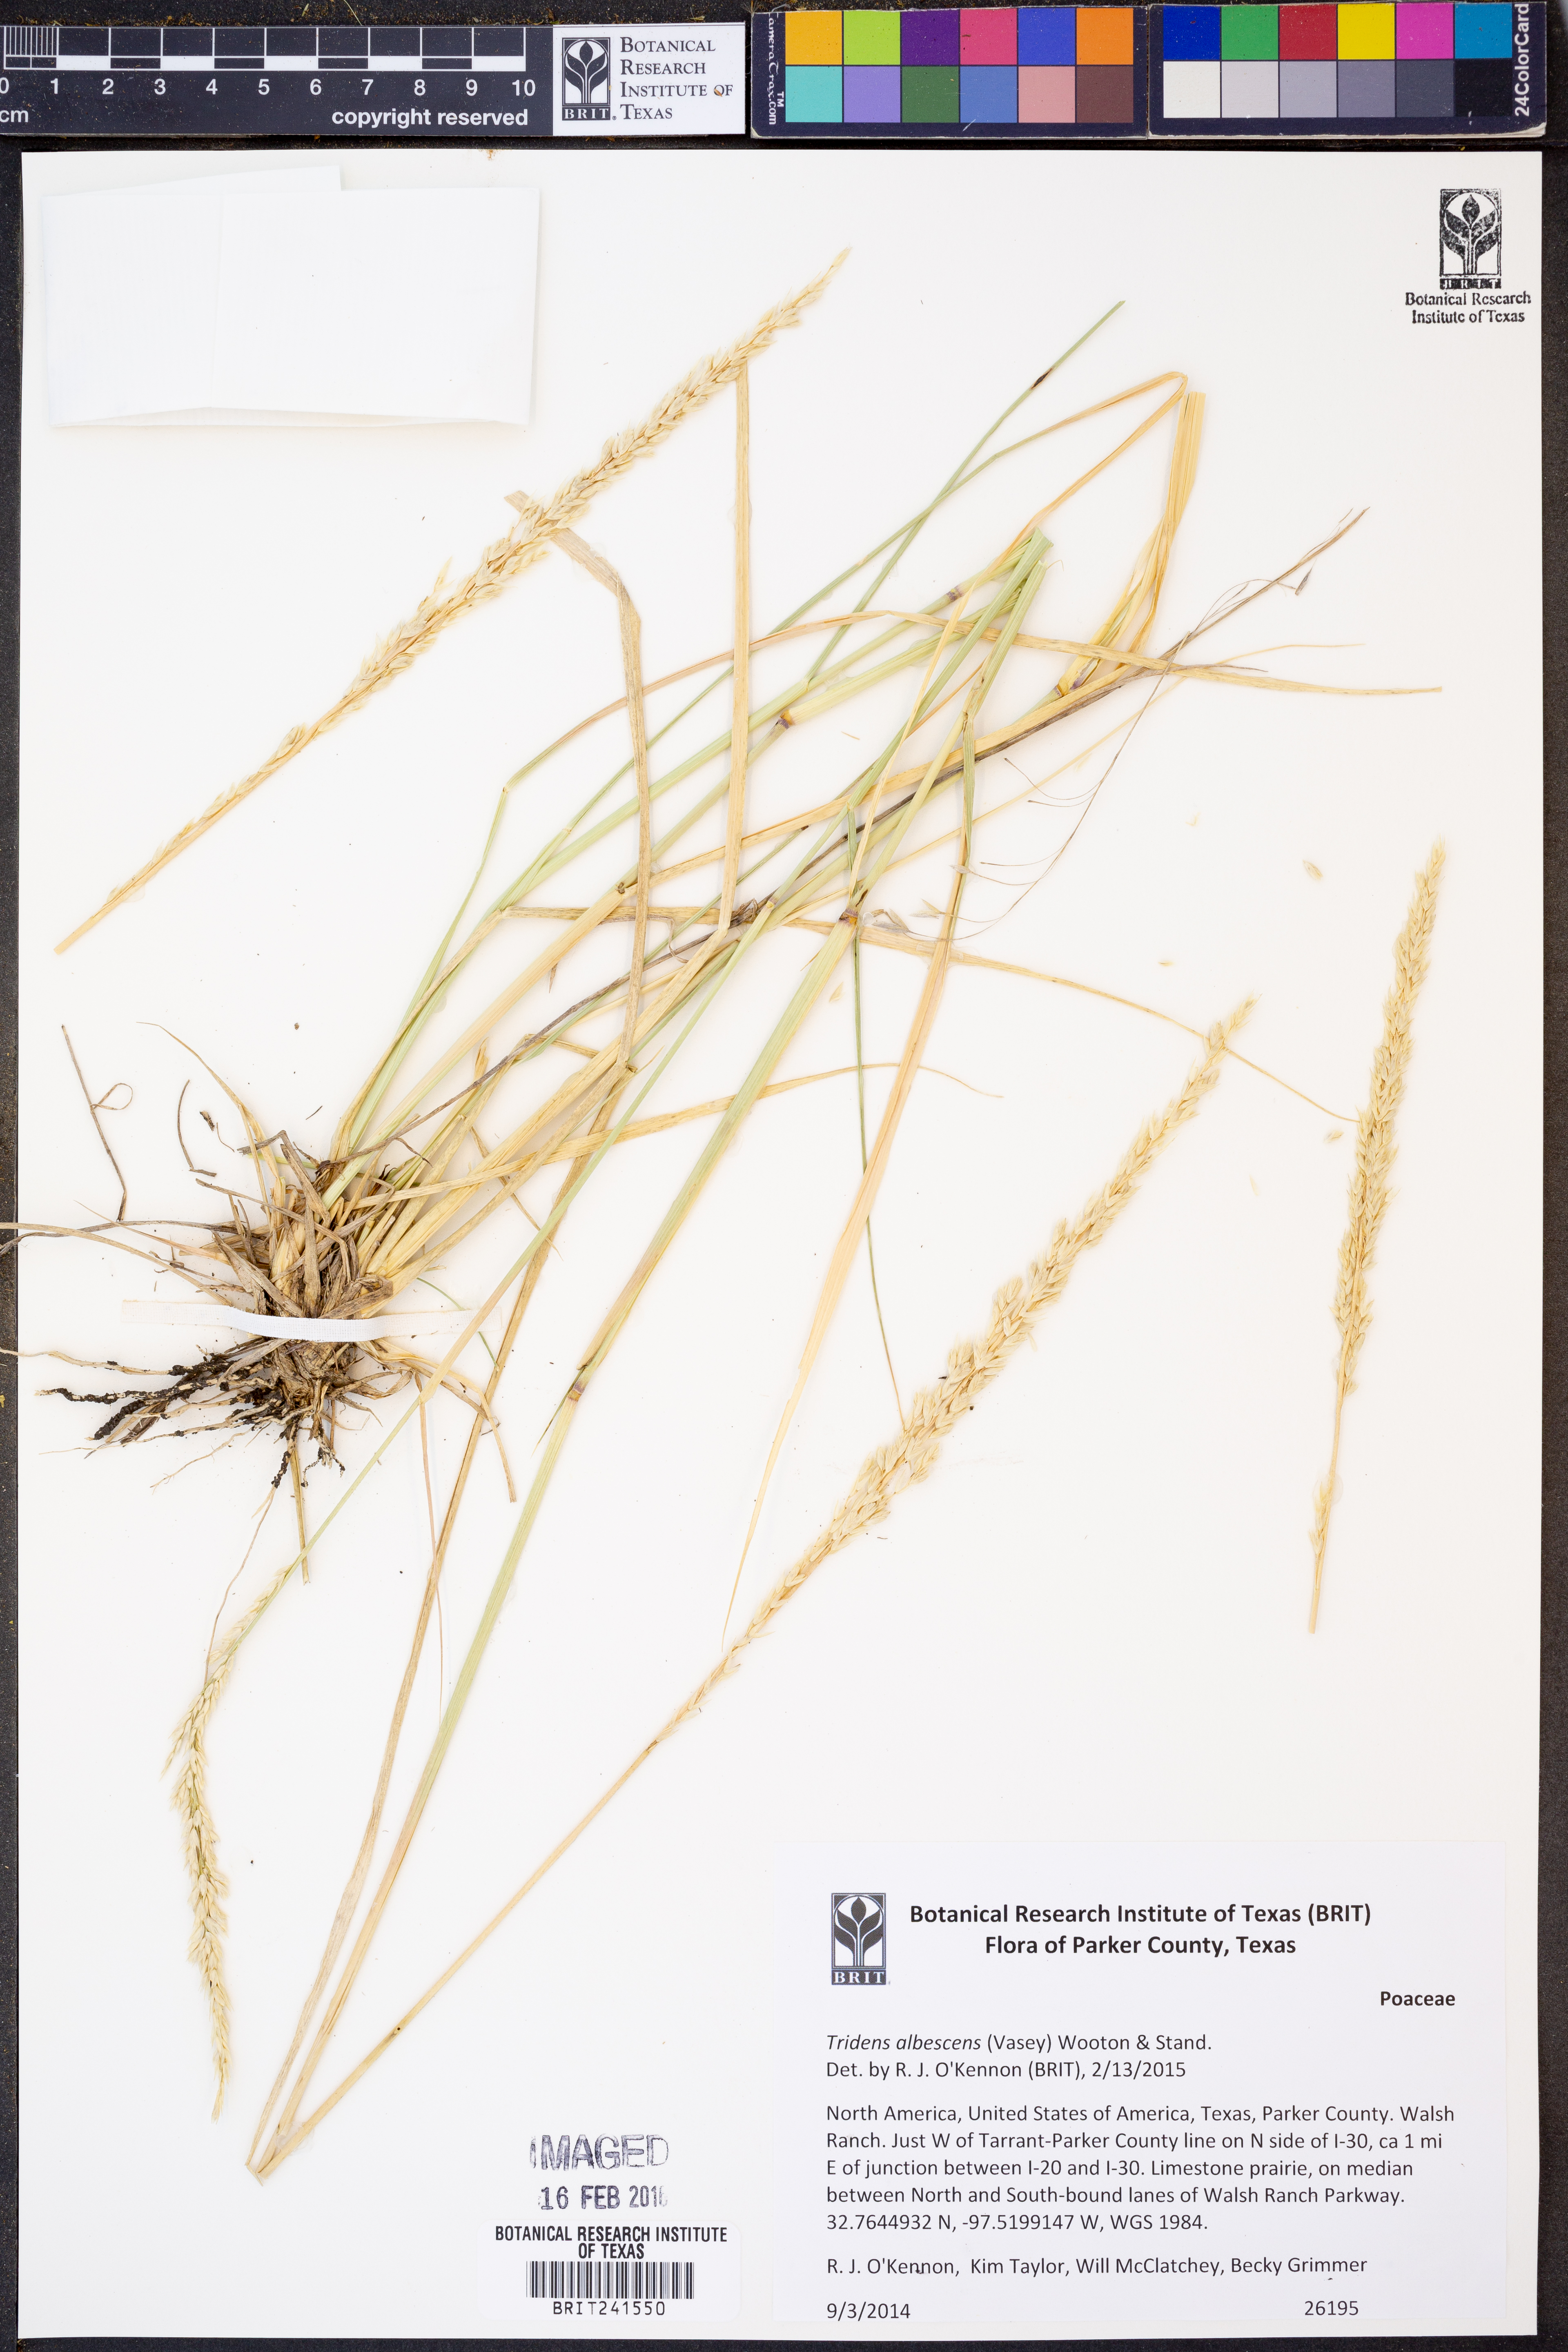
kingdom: Plantae
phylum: Tracheophyta
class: Liliopsida
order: Poales
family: Poaceae
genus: Tridens
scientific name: Tridens albescens
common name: White tridens
